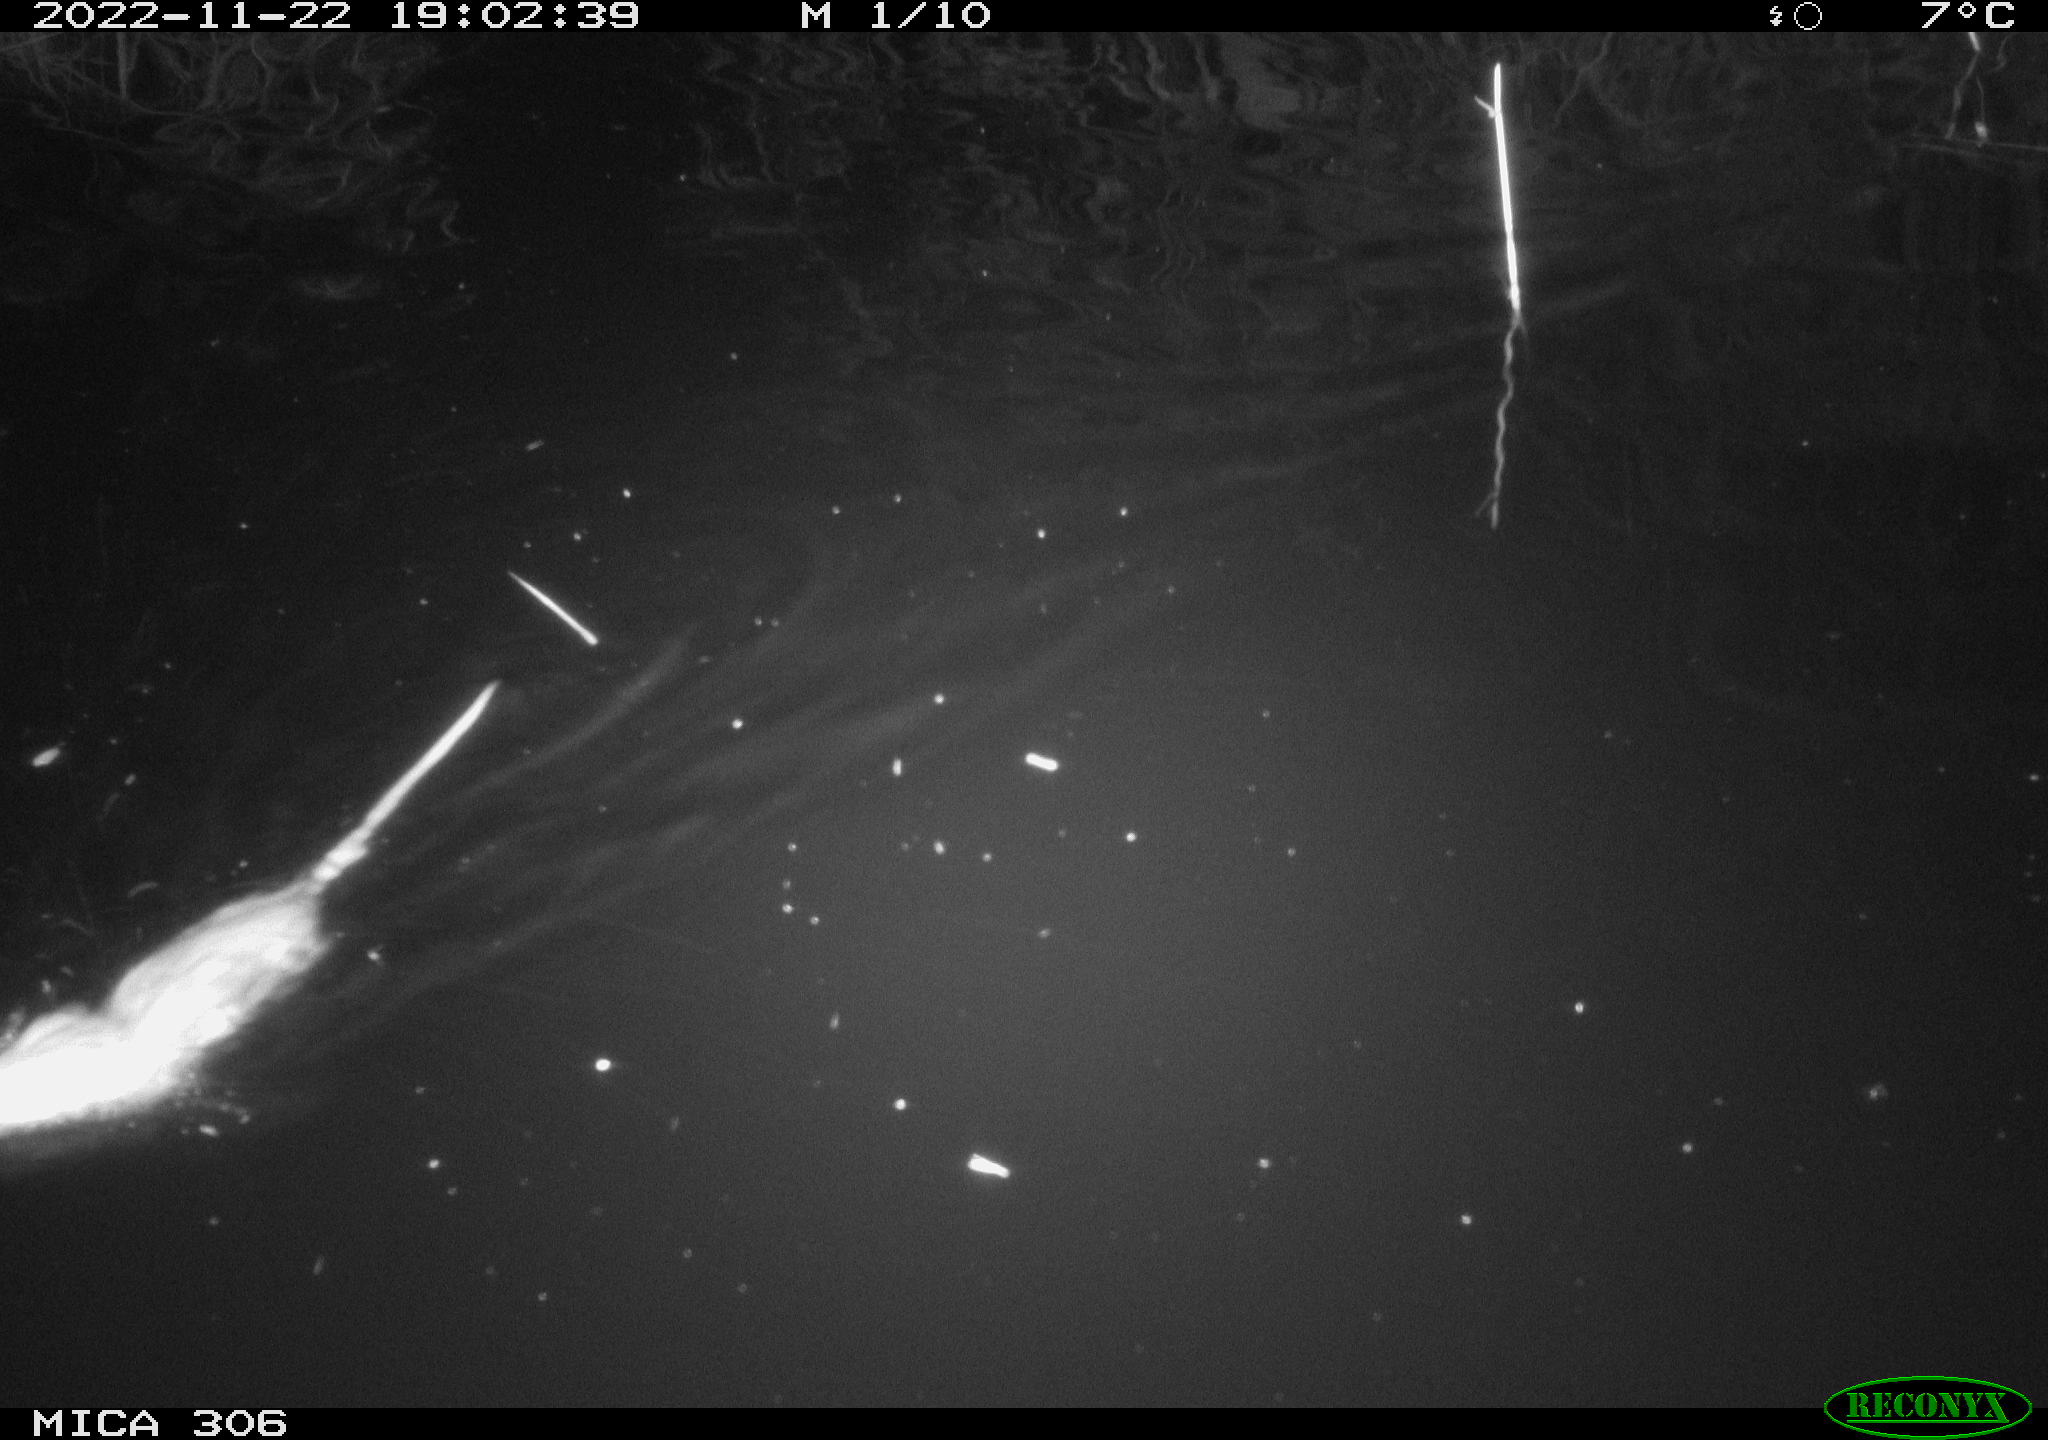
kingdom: Animalia
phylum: Chordata
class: Mammalia
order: Rodentia
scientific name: Rodentia
